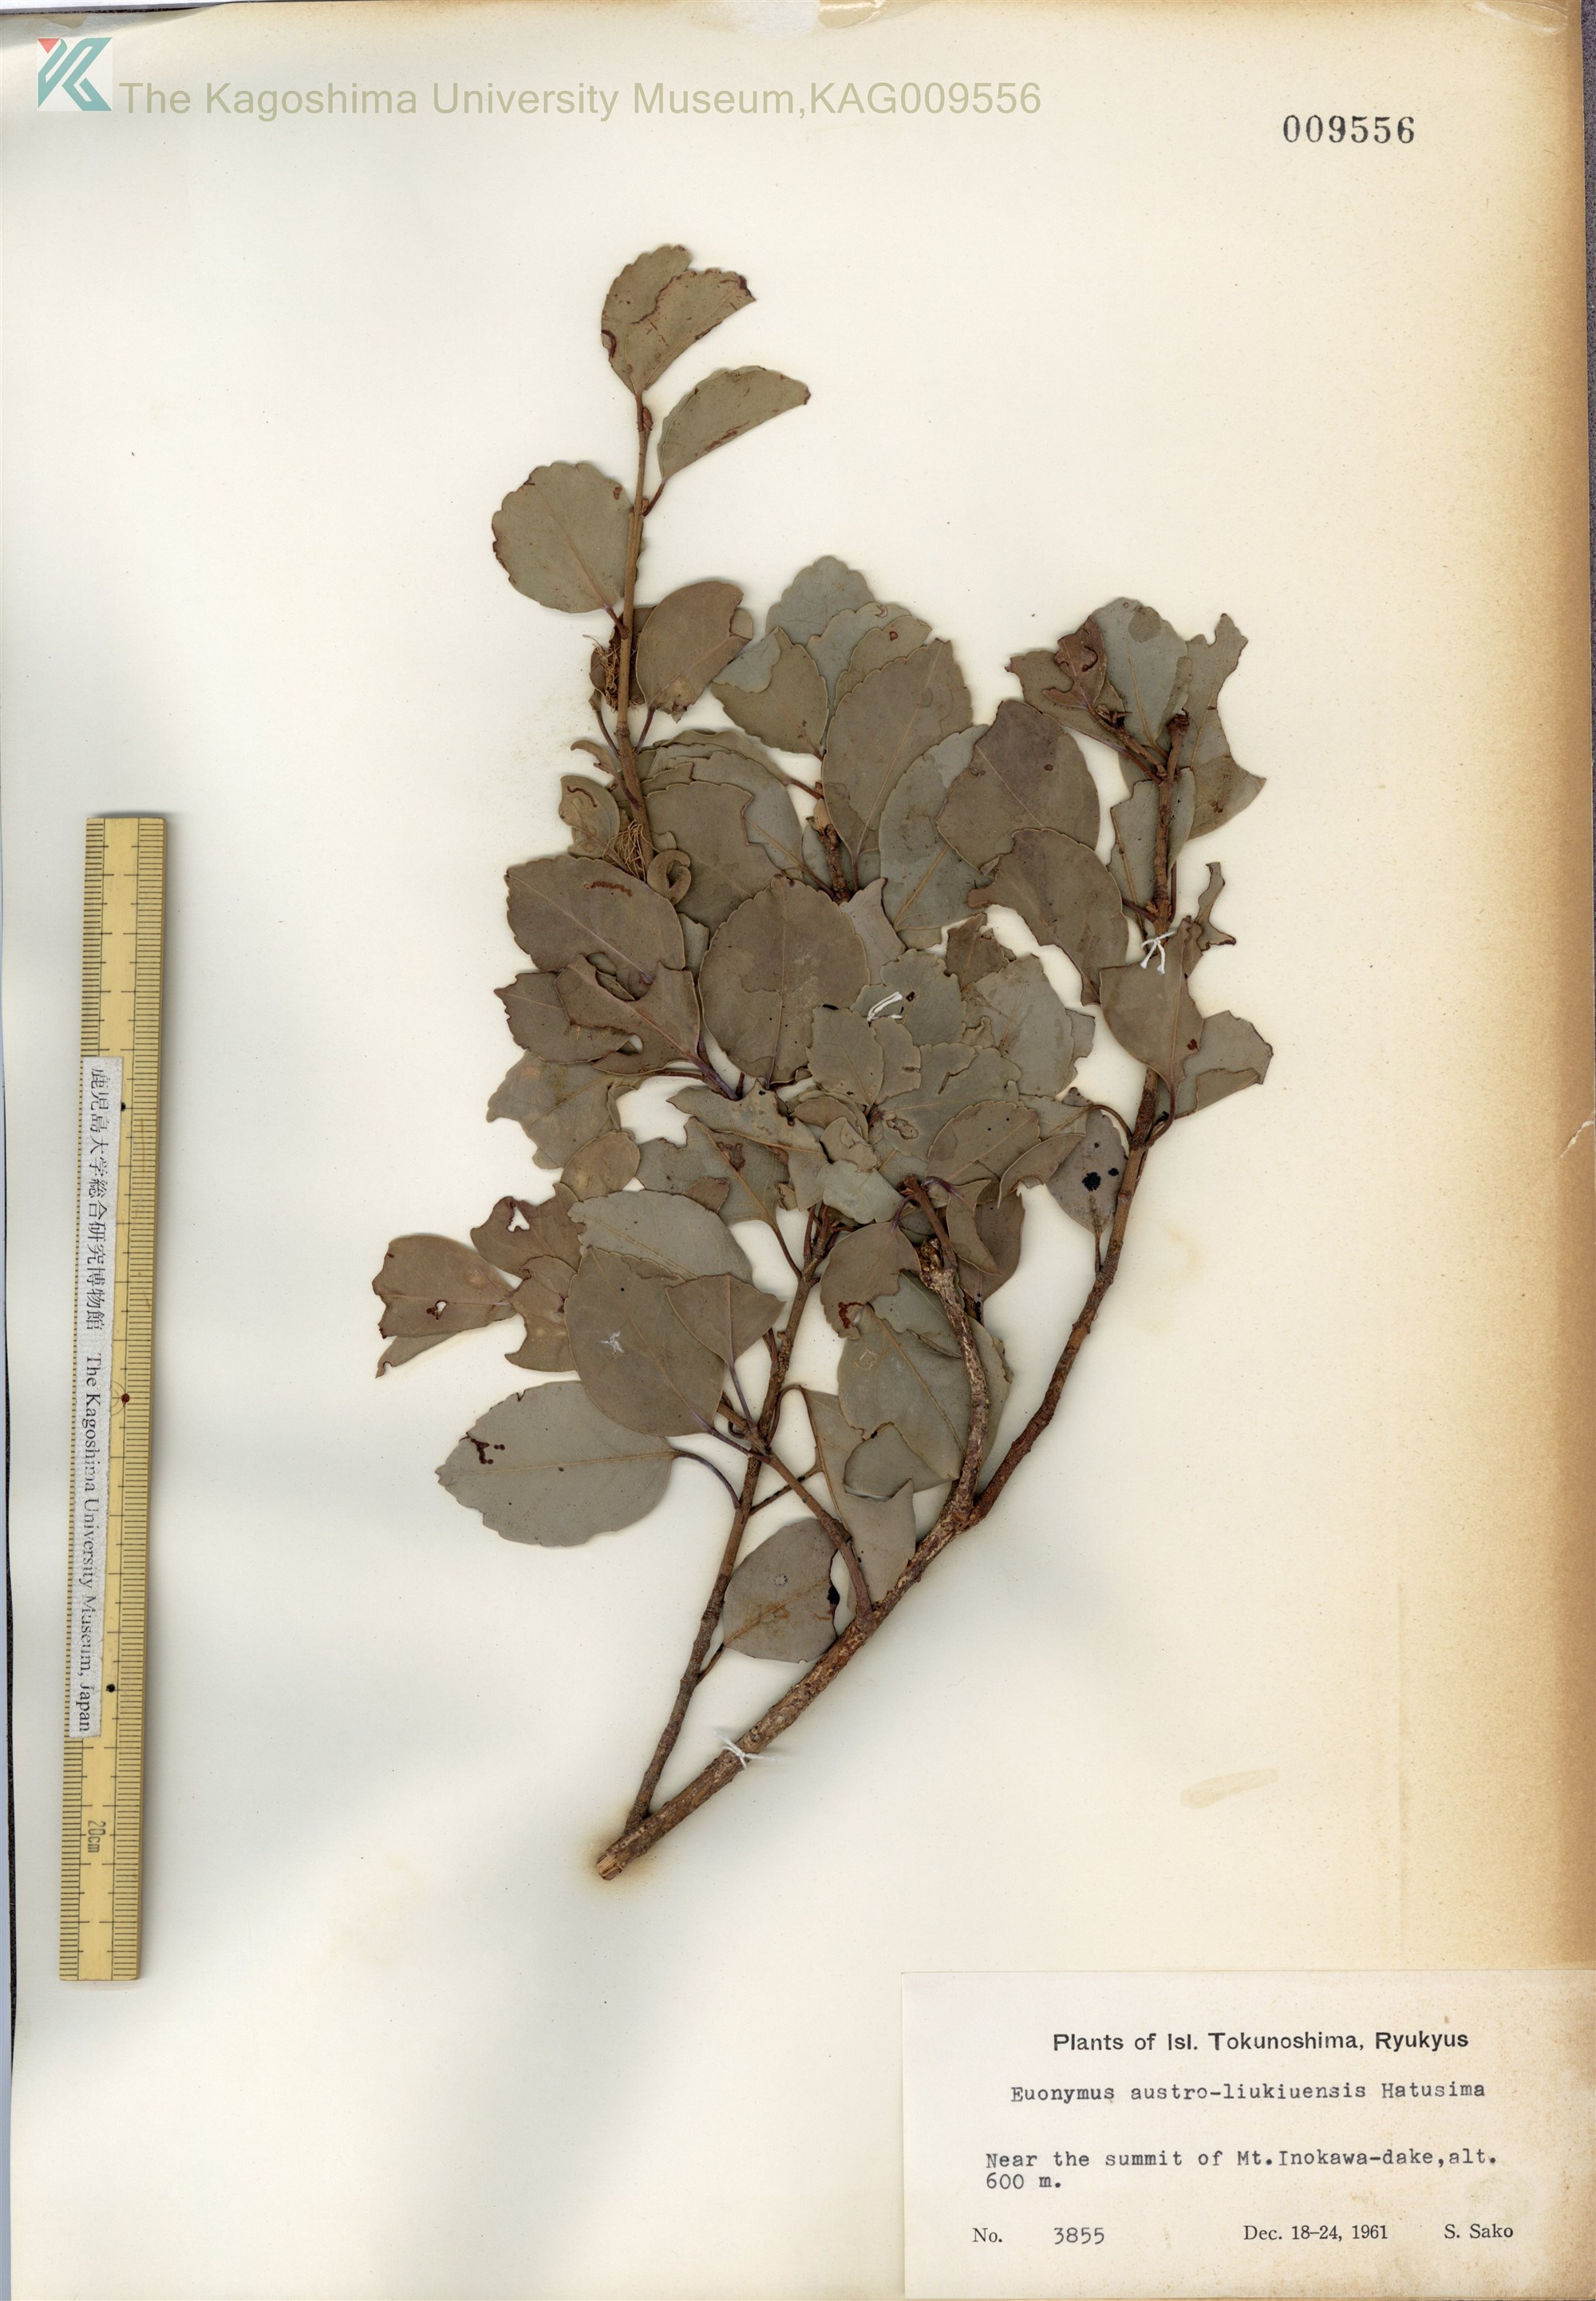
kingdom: Plantae
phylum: Tracheophyta
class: Magnoliopsida
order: Celastrales
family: Celastraceae
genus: Euonymus
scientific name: Euonymus fortunei
